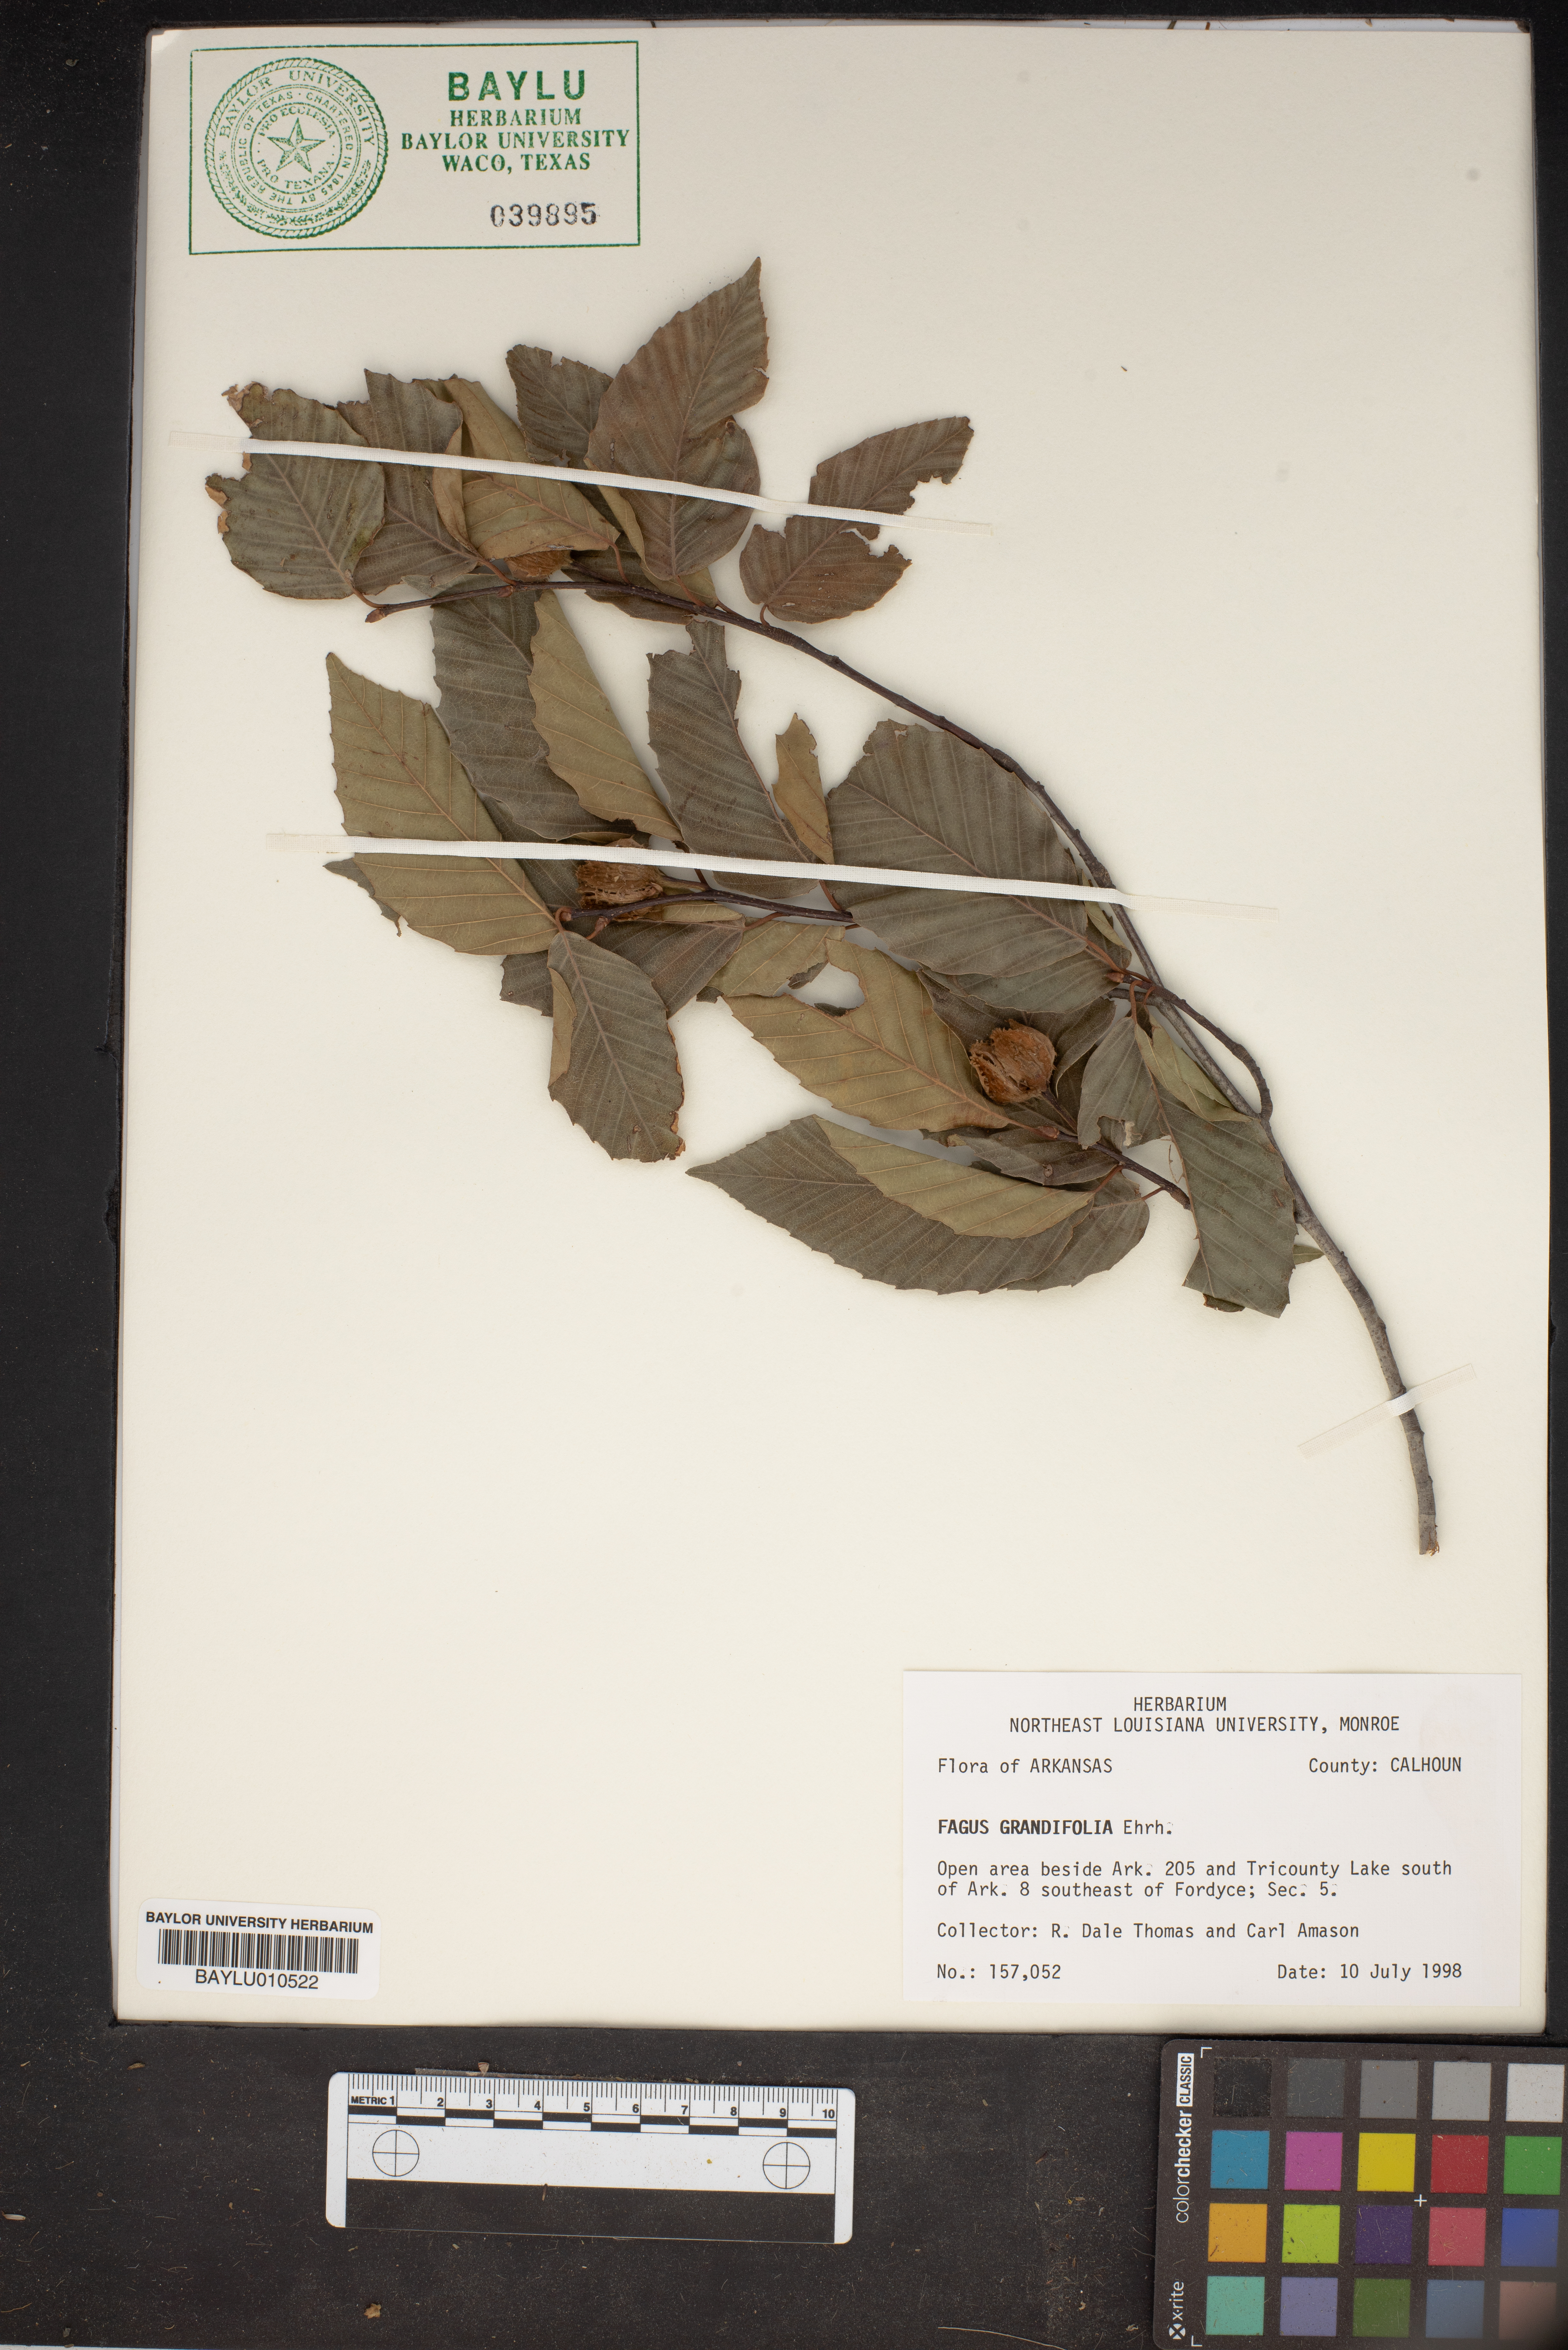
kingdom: Plantae
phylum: Tracheophyta
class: Magnoliopsida
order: Fagales
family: Fagaceae
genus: Fagus
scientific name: Fagus grandifolia
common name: American beech
